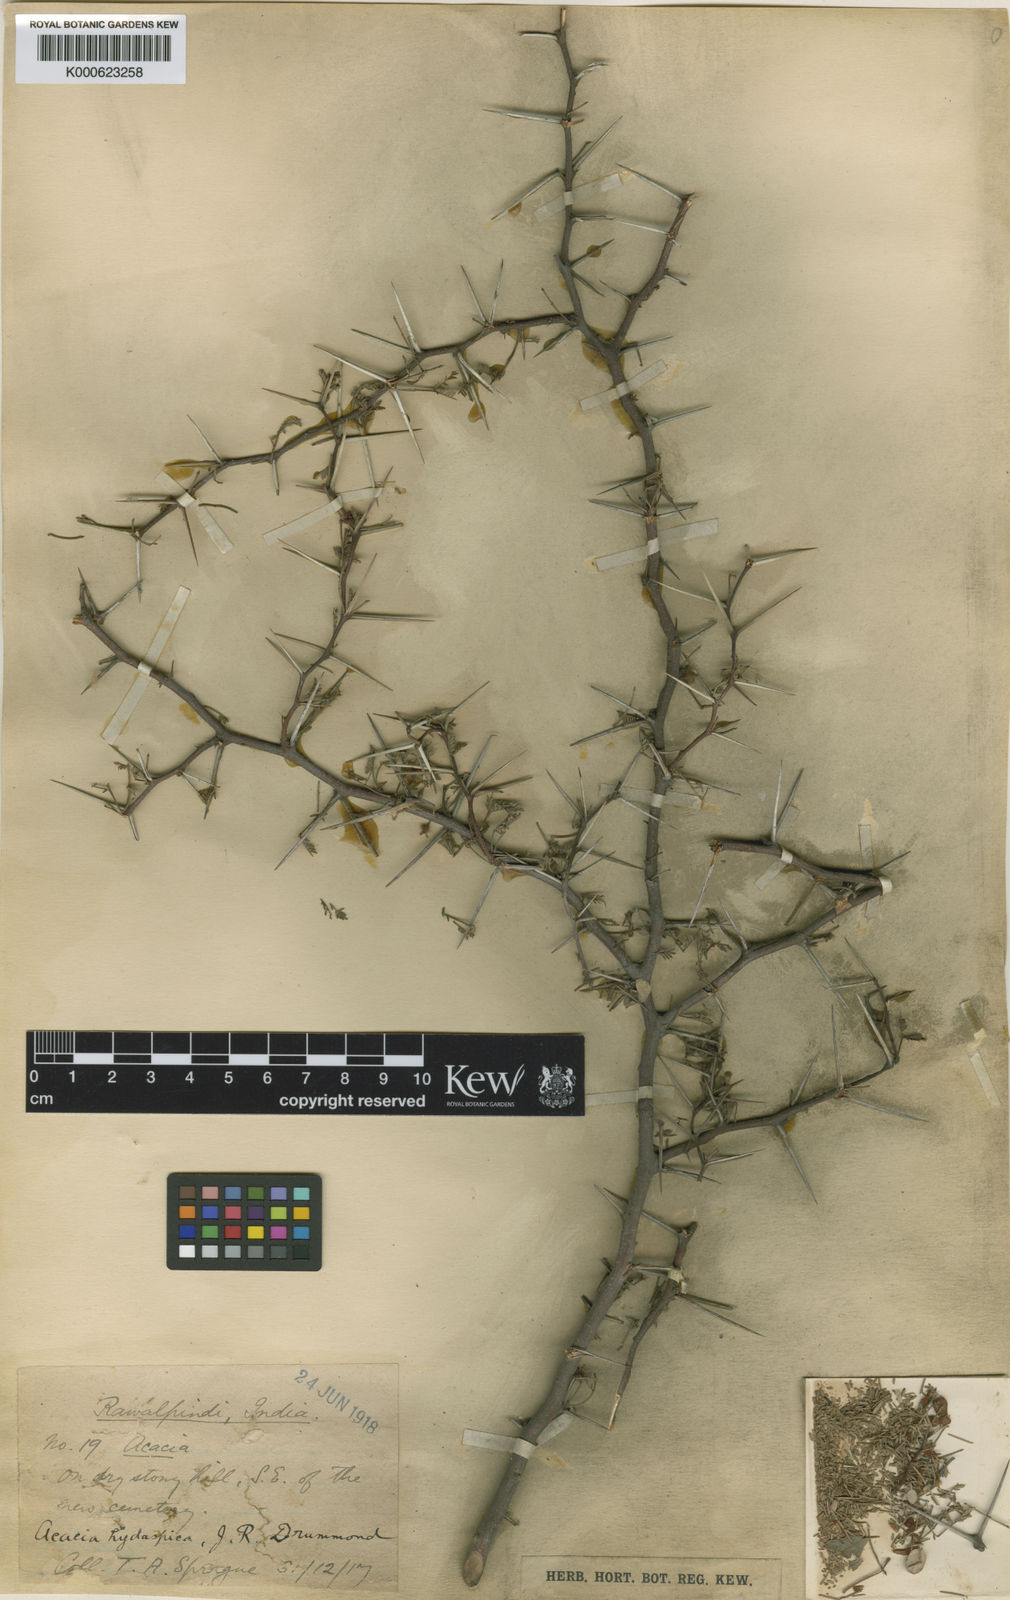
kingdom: Plantae
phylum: Tracheophyta
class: Magnoliopsida
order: Fabales
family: Fabaceae
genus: Vachellia
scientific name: Vachellia hydaspica
